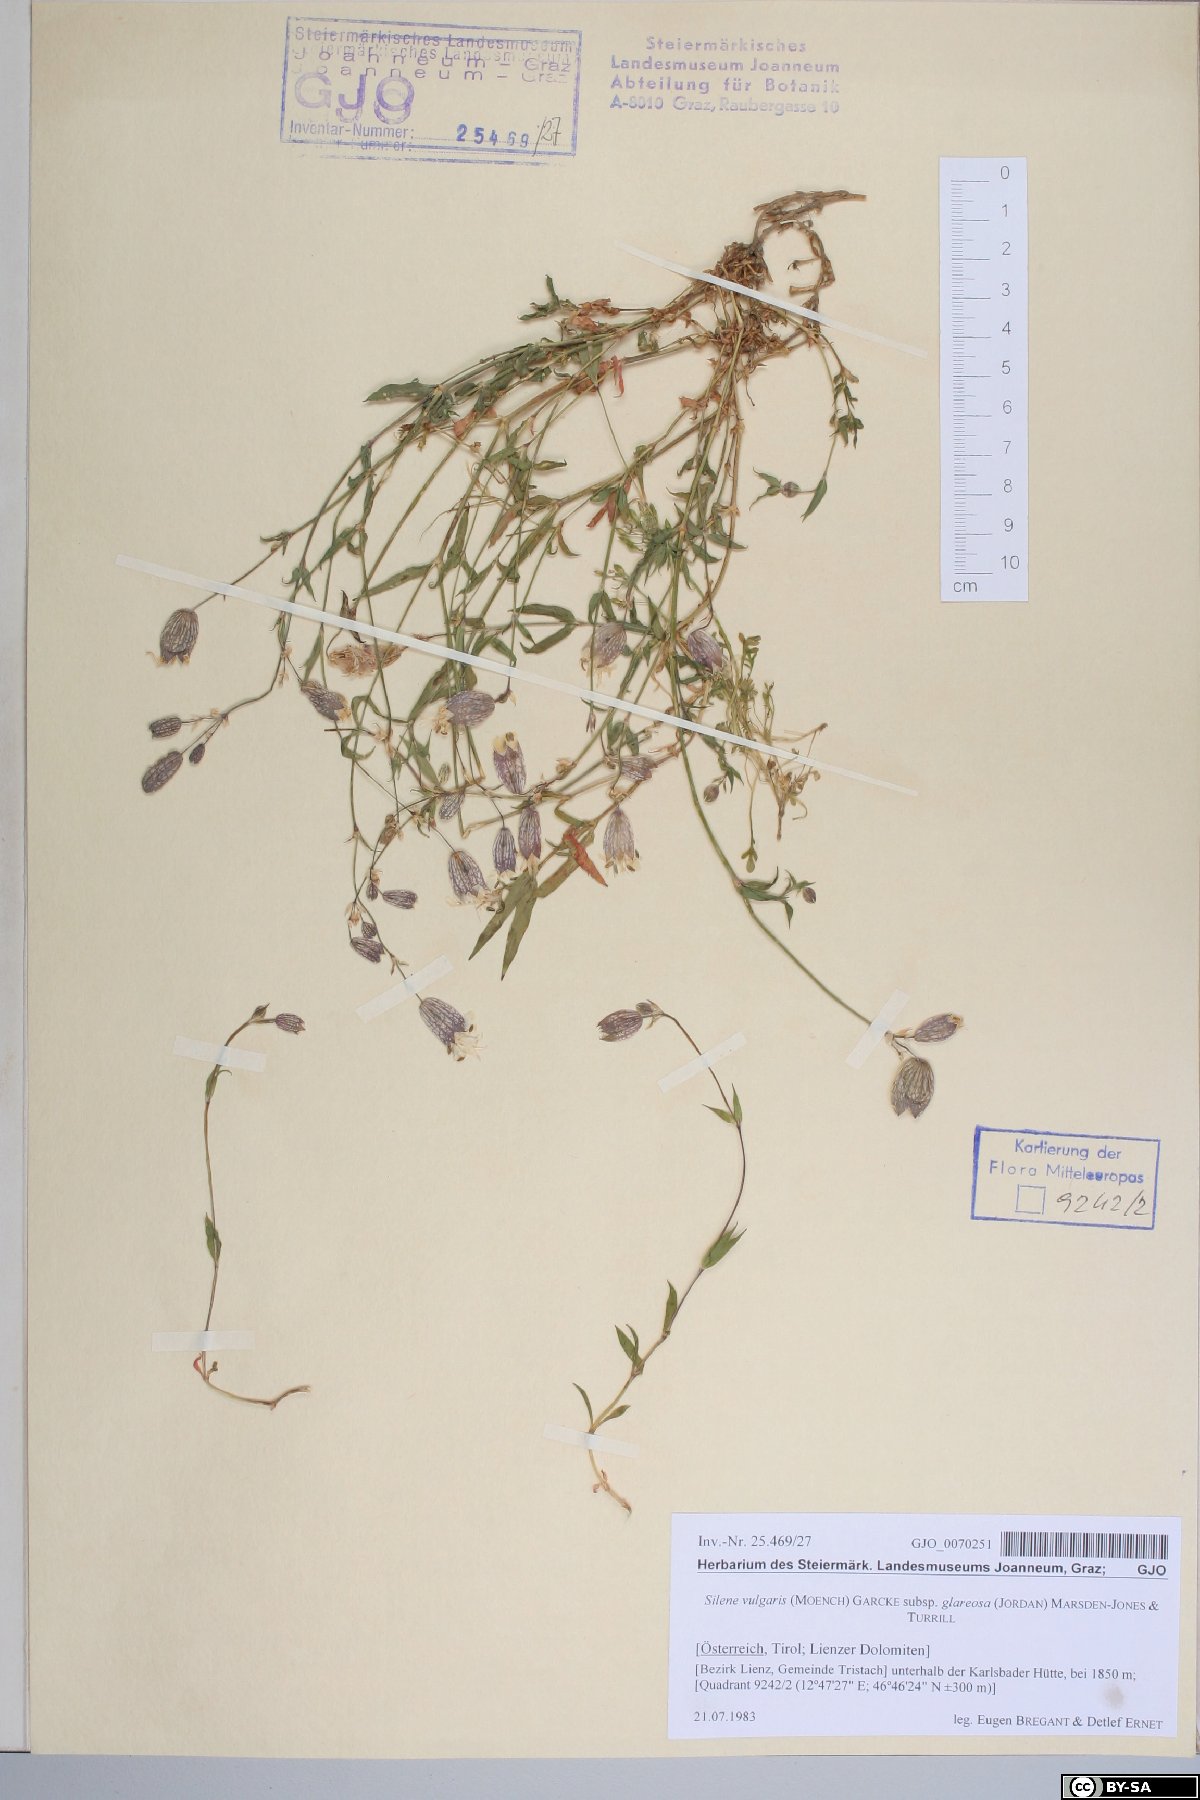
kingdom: Plantae
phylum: Tracheophyta
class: Magnoliopsida
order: Caryophyllales
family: Caryophyllaceae
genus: Silene
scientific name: Silene glareosa
